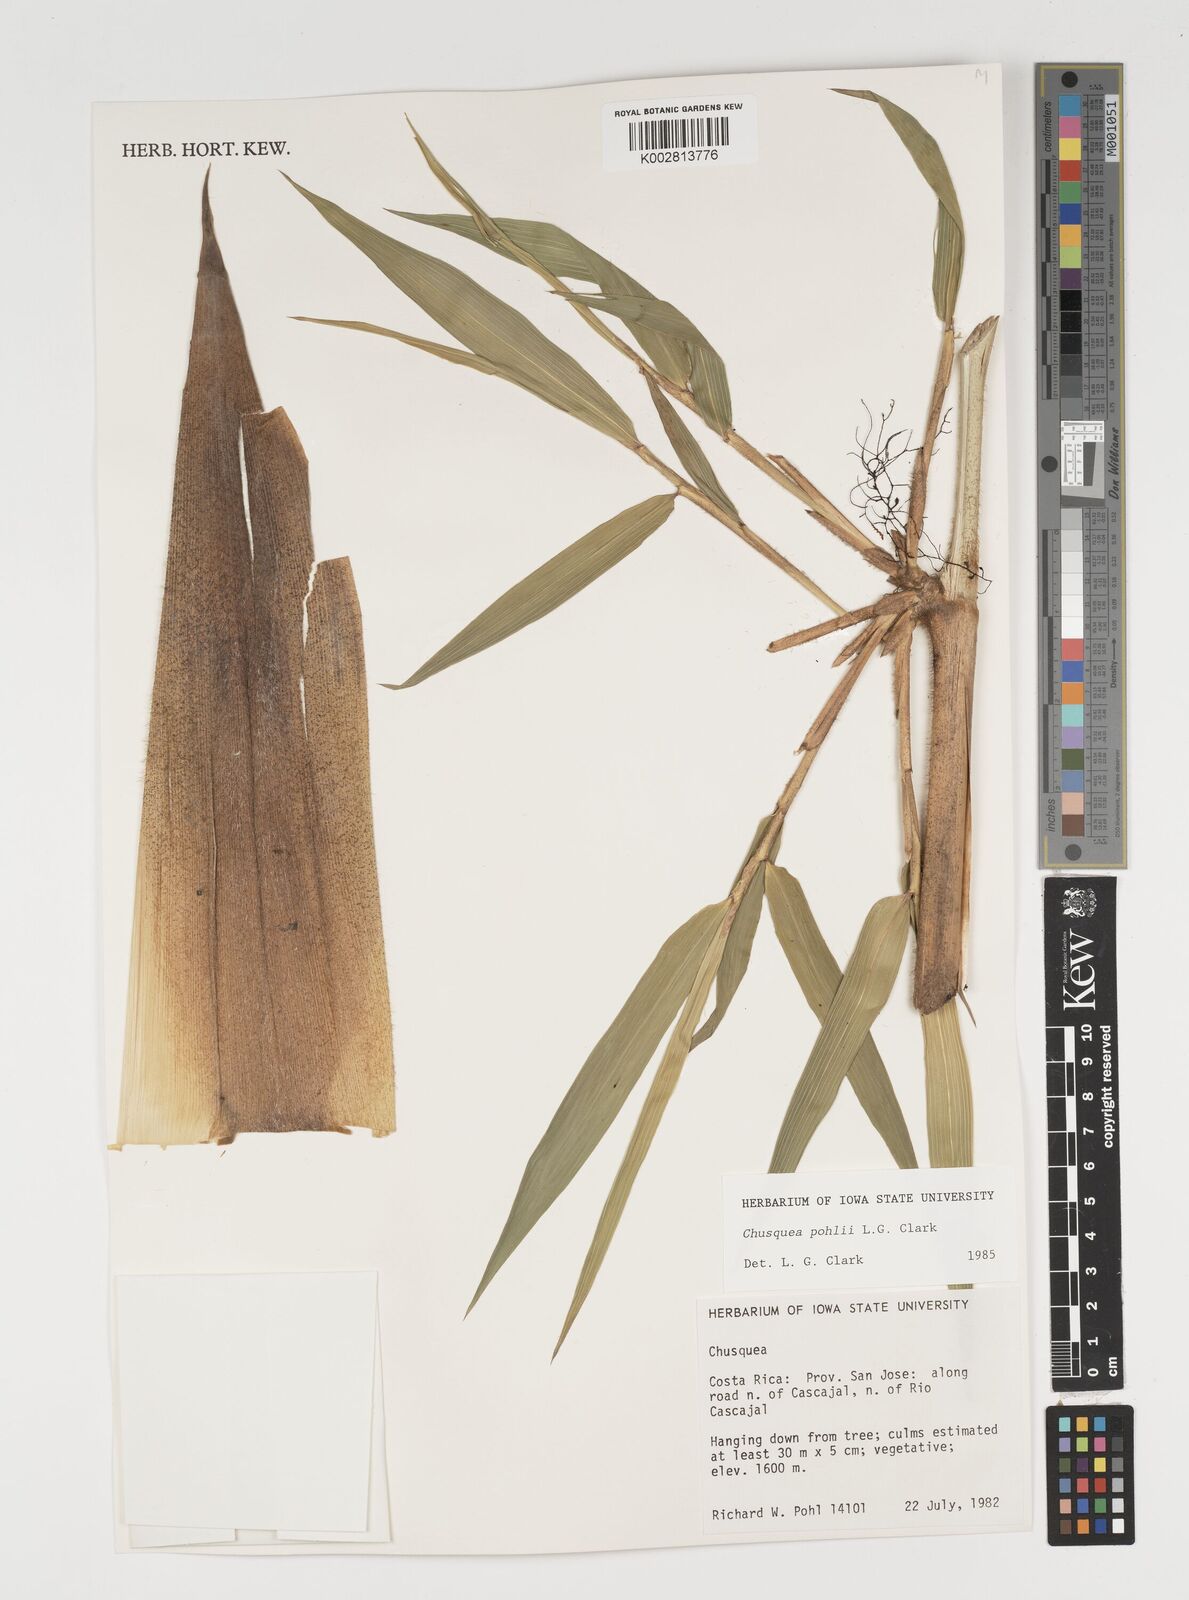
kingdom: Plantae
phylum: Tracheophyta
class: Liliopsida
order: Poales
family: Poaceae
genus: Chusquea
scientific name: Chusquea pohlii
